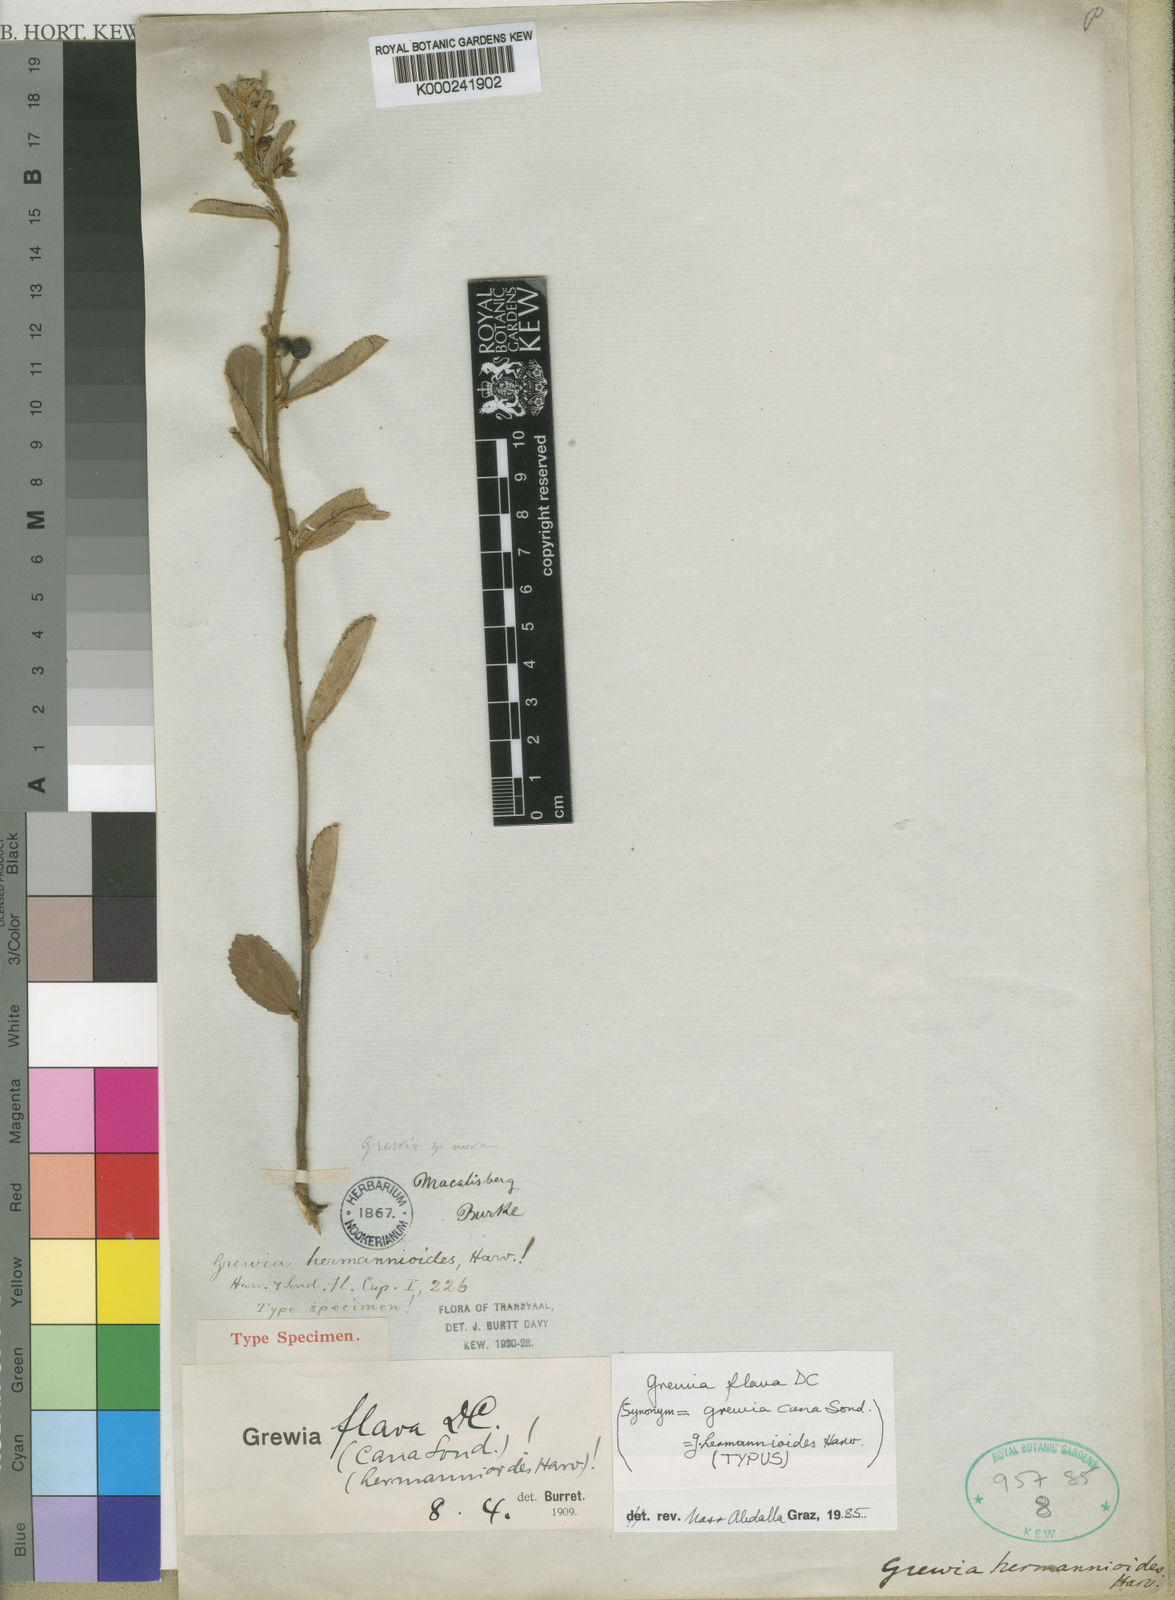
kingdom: Plantae
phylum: Tracheophyta
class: Magnoliopsida
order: Malvales
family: Malvaceae
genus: Grewia
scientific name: Grewia flava
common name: Brandy bush
